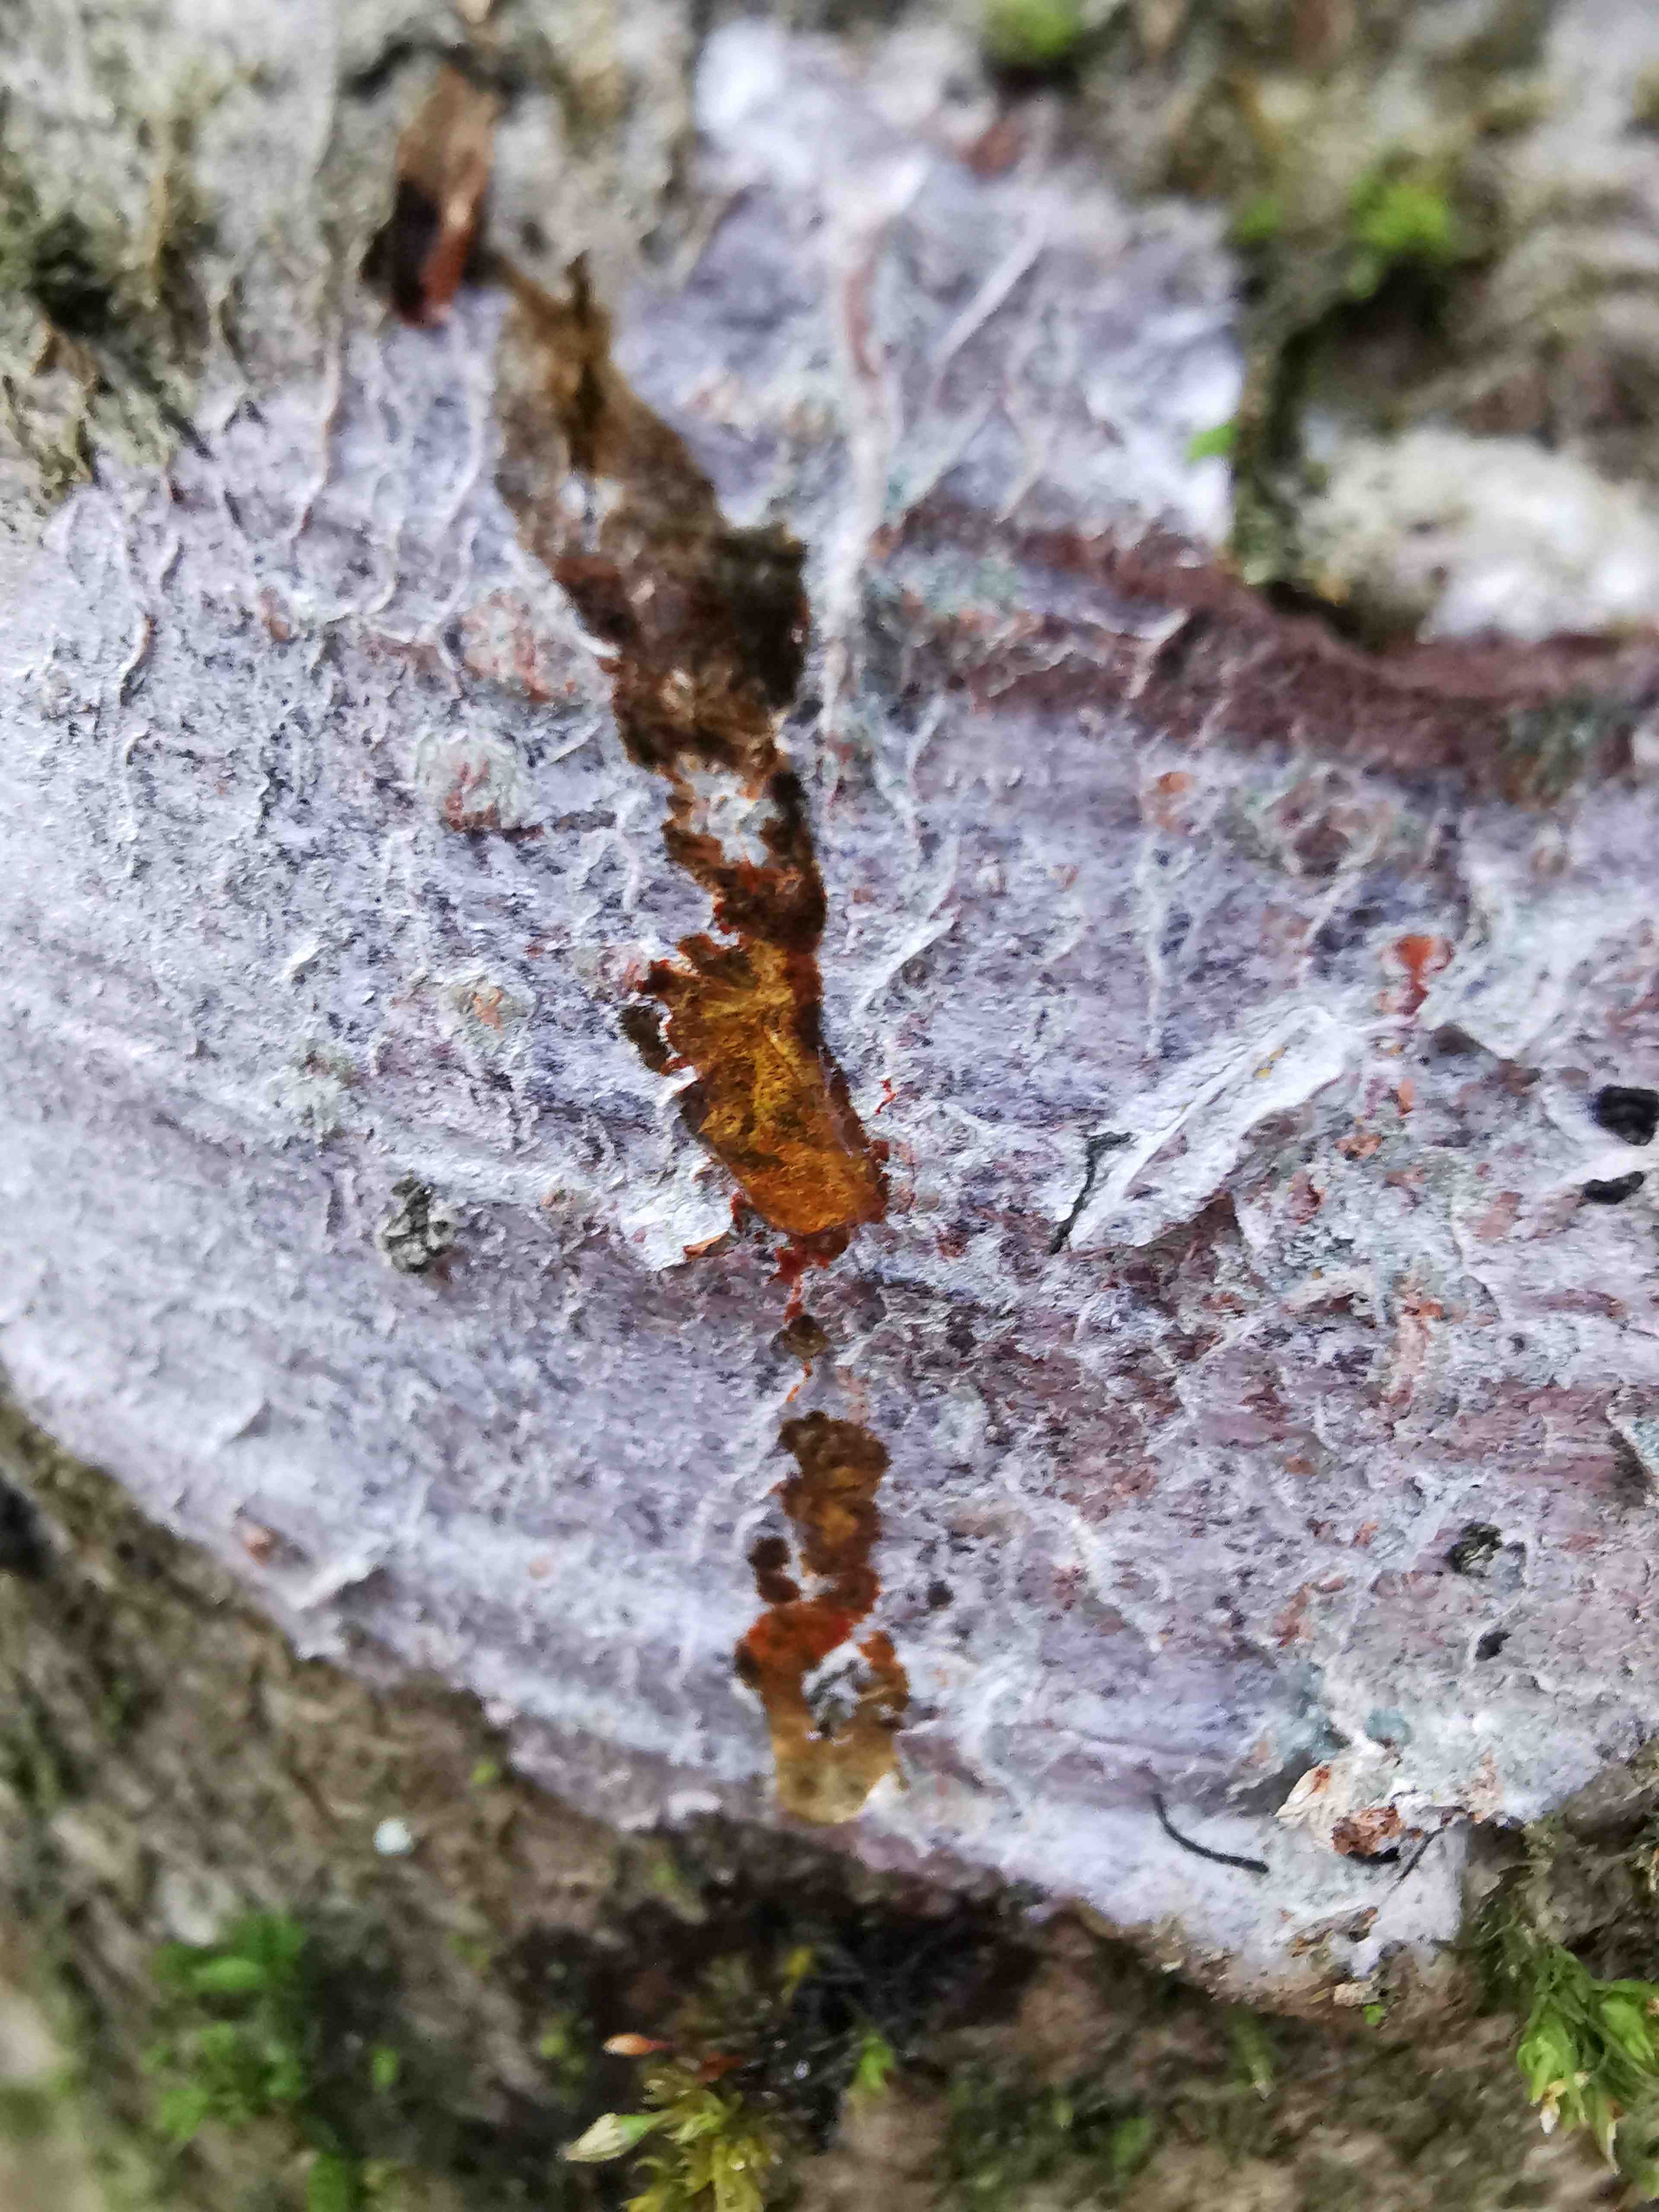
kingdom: Fungi
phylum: Ascomycota
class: Lecanoromycetes
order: Ostropales
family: Phlyctidaceae
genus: Phlyctis
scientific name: Phlyctis argena
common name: almindelig sølvlav
